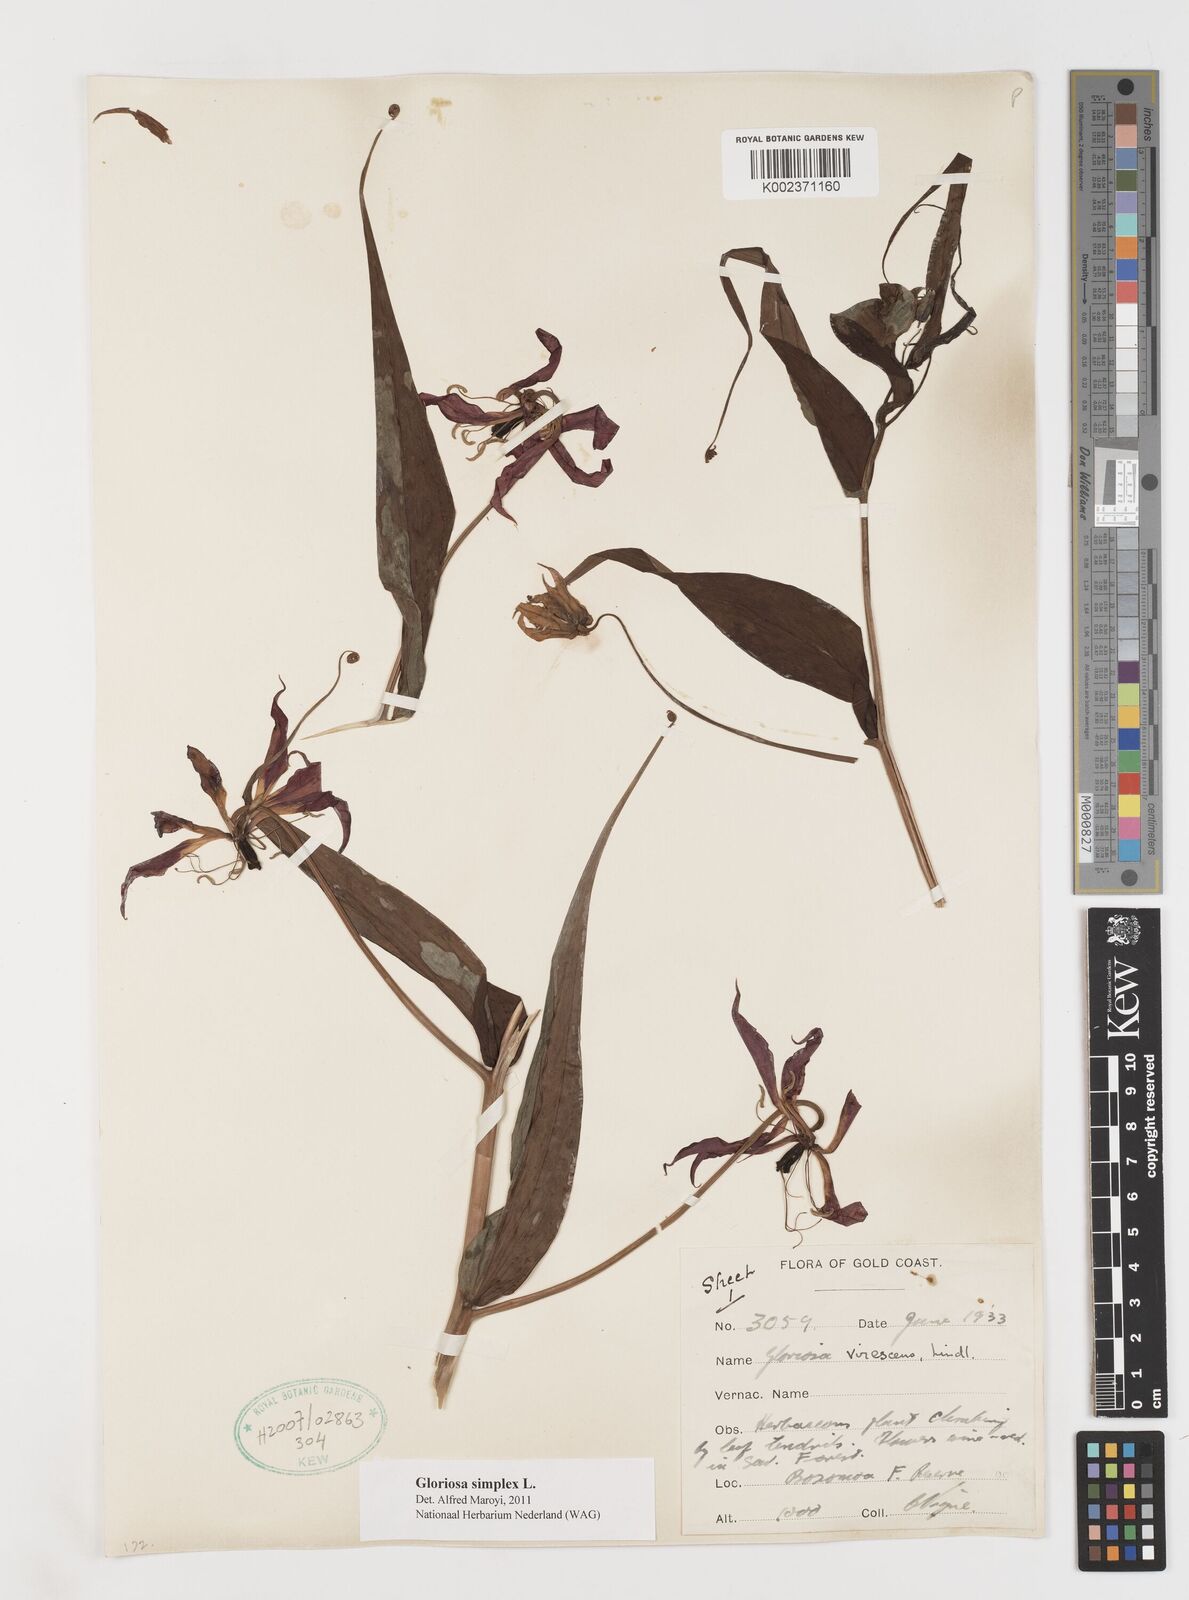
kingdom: Plantae
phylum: Tracheophyta
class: Liliopsida
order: Liliales
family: Colchicaceae
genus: Gloriosa
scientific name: Gloriosa simplex
